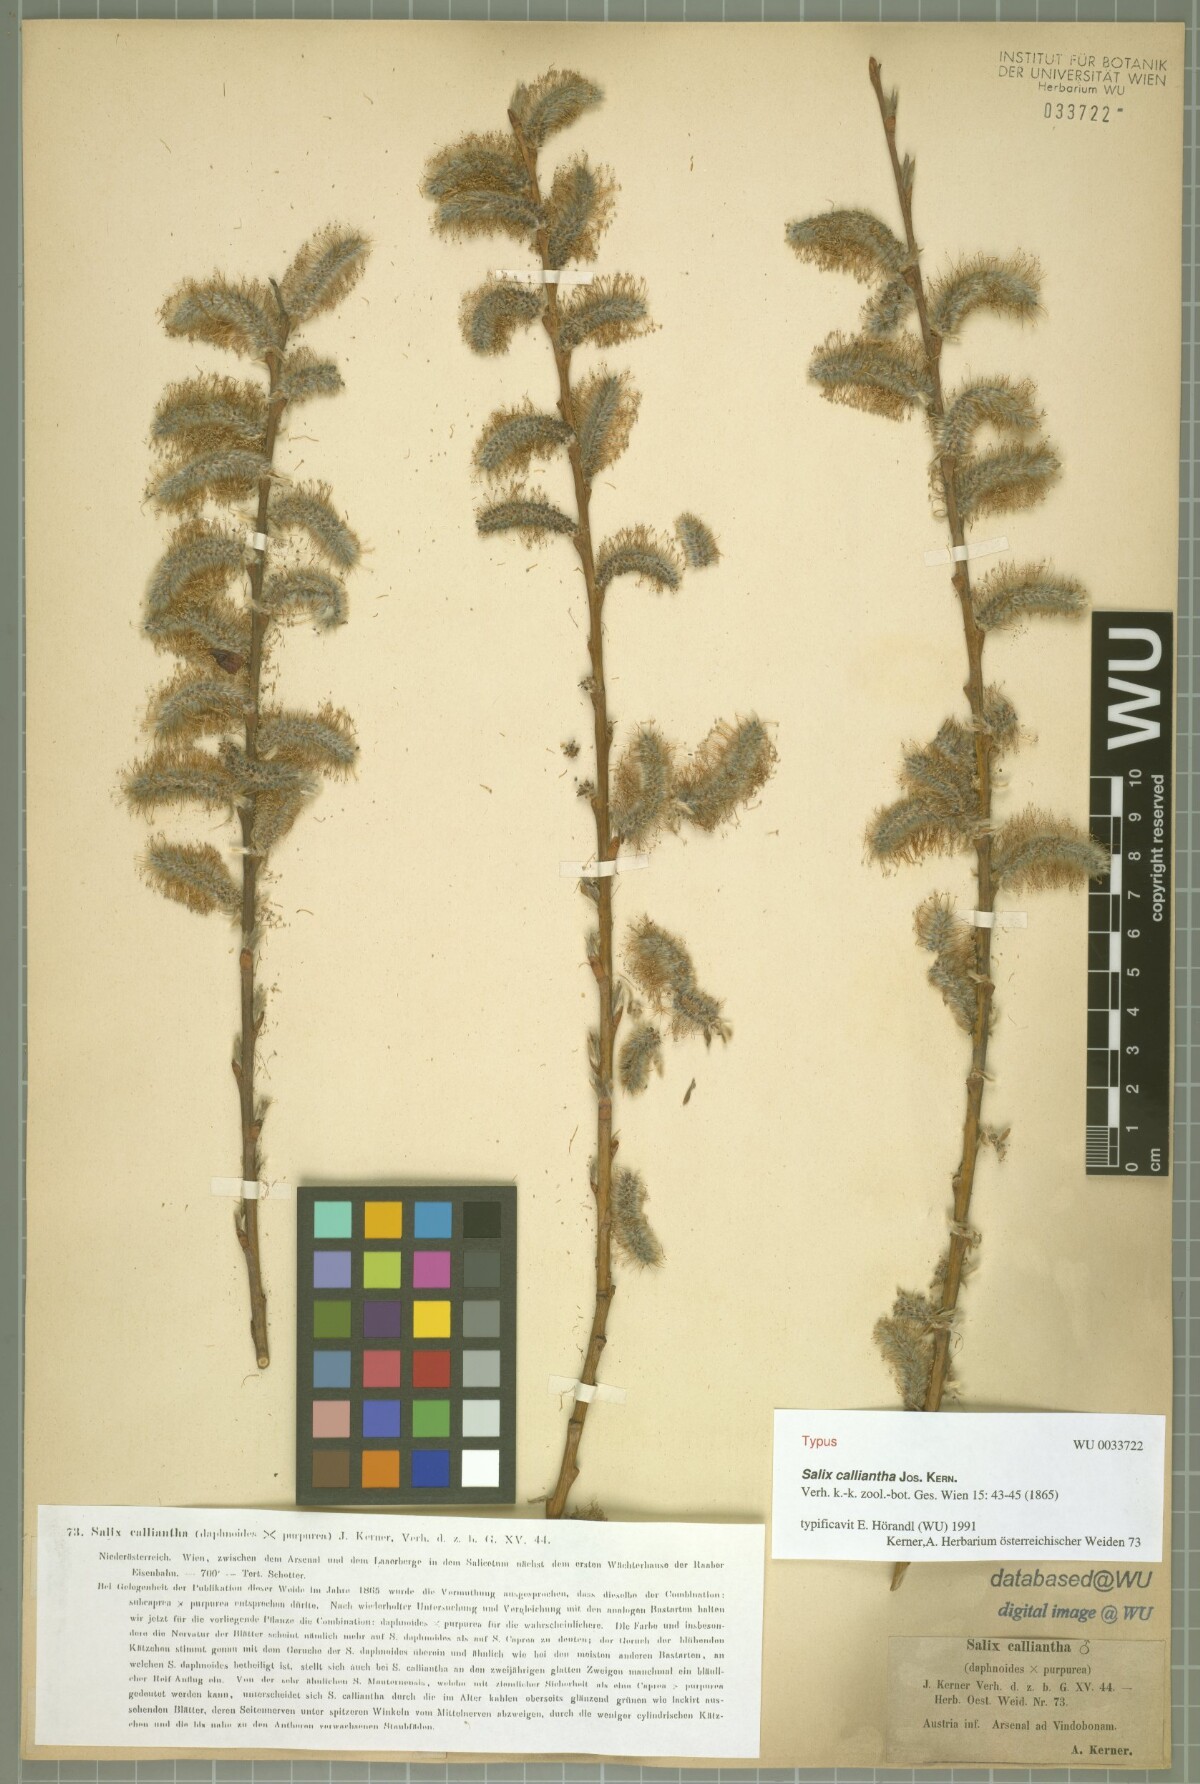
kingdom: Plantae
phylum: Tracheophyta
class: Magnoliopsida
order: Malpighiales
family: Salicaceae
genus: Salix
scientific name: Salix calliantha
